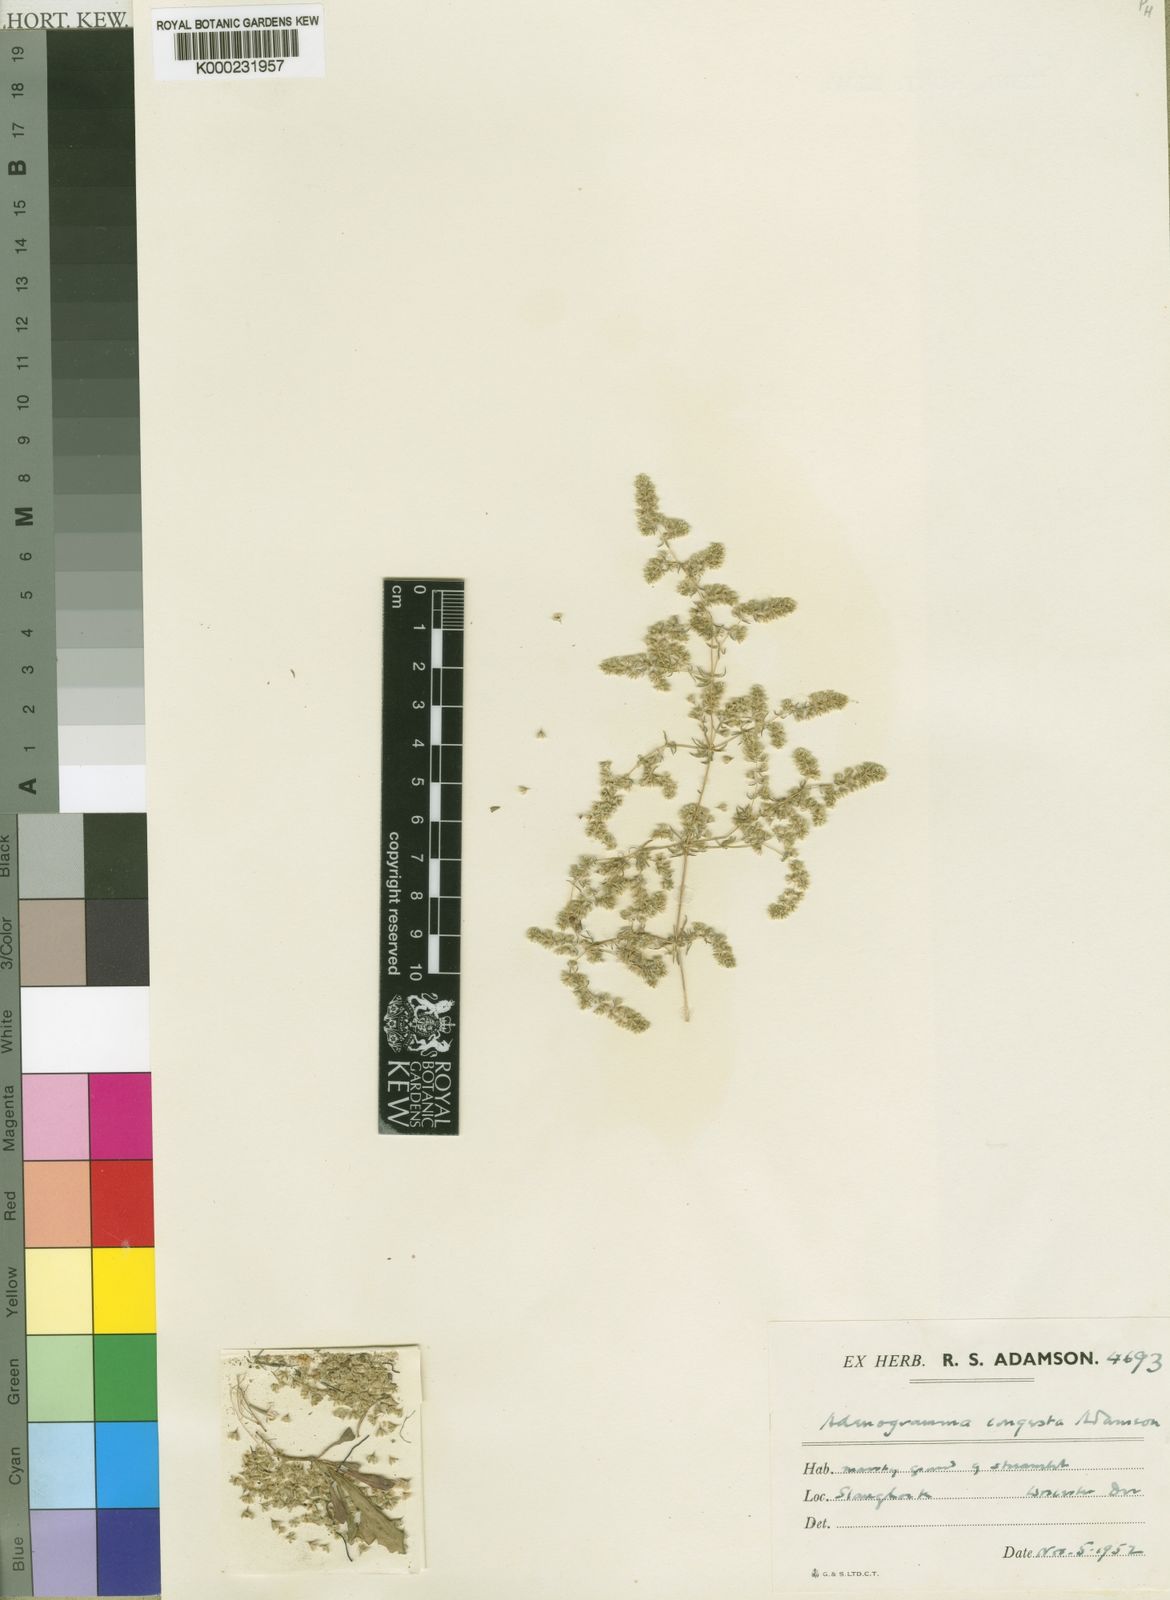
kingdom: Plantae
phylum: Tracheophyta
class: Magnoliopsida
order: Caryophyllales
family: Molluginaceae
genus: Adenogramma
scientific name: Adenogramma congesta
